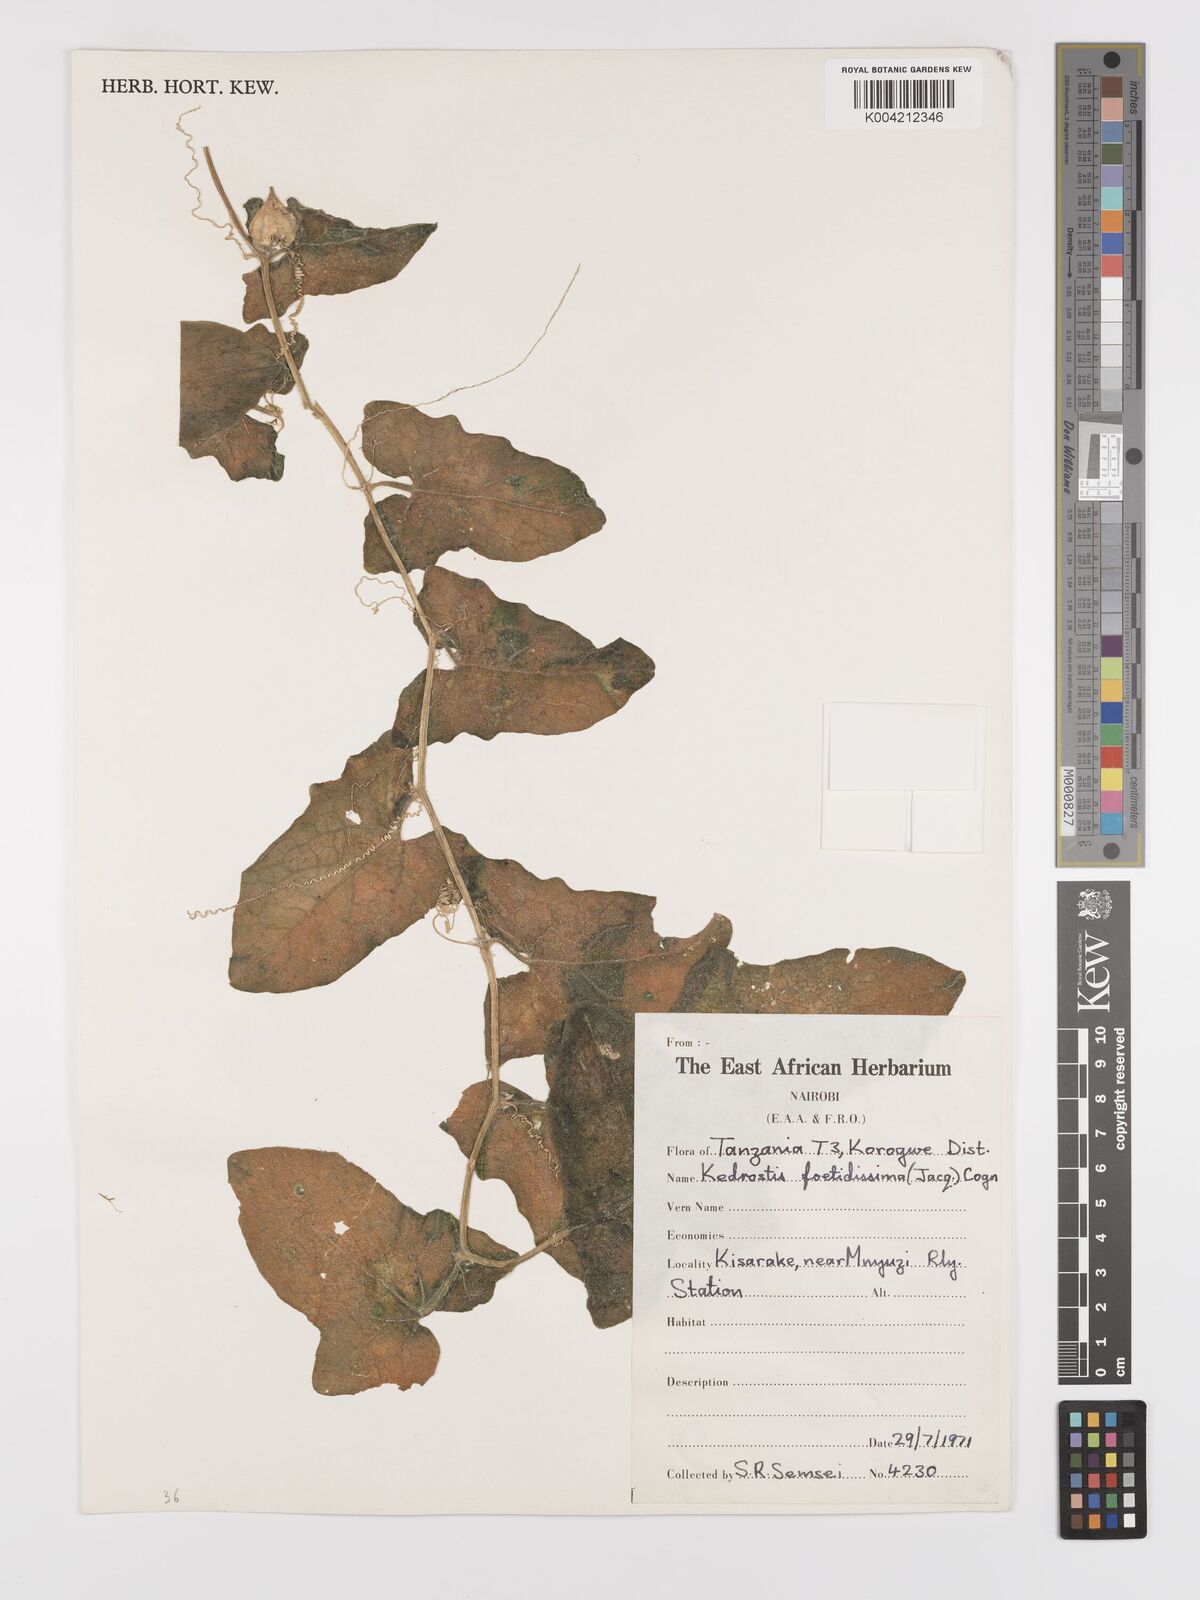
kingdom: Plantae
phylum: Tracheophyta
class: Magnoliopsida
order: Cucurbitales
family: Cucurbitaceae
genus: Kedrostis
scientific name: Kedrostis foetidissima
